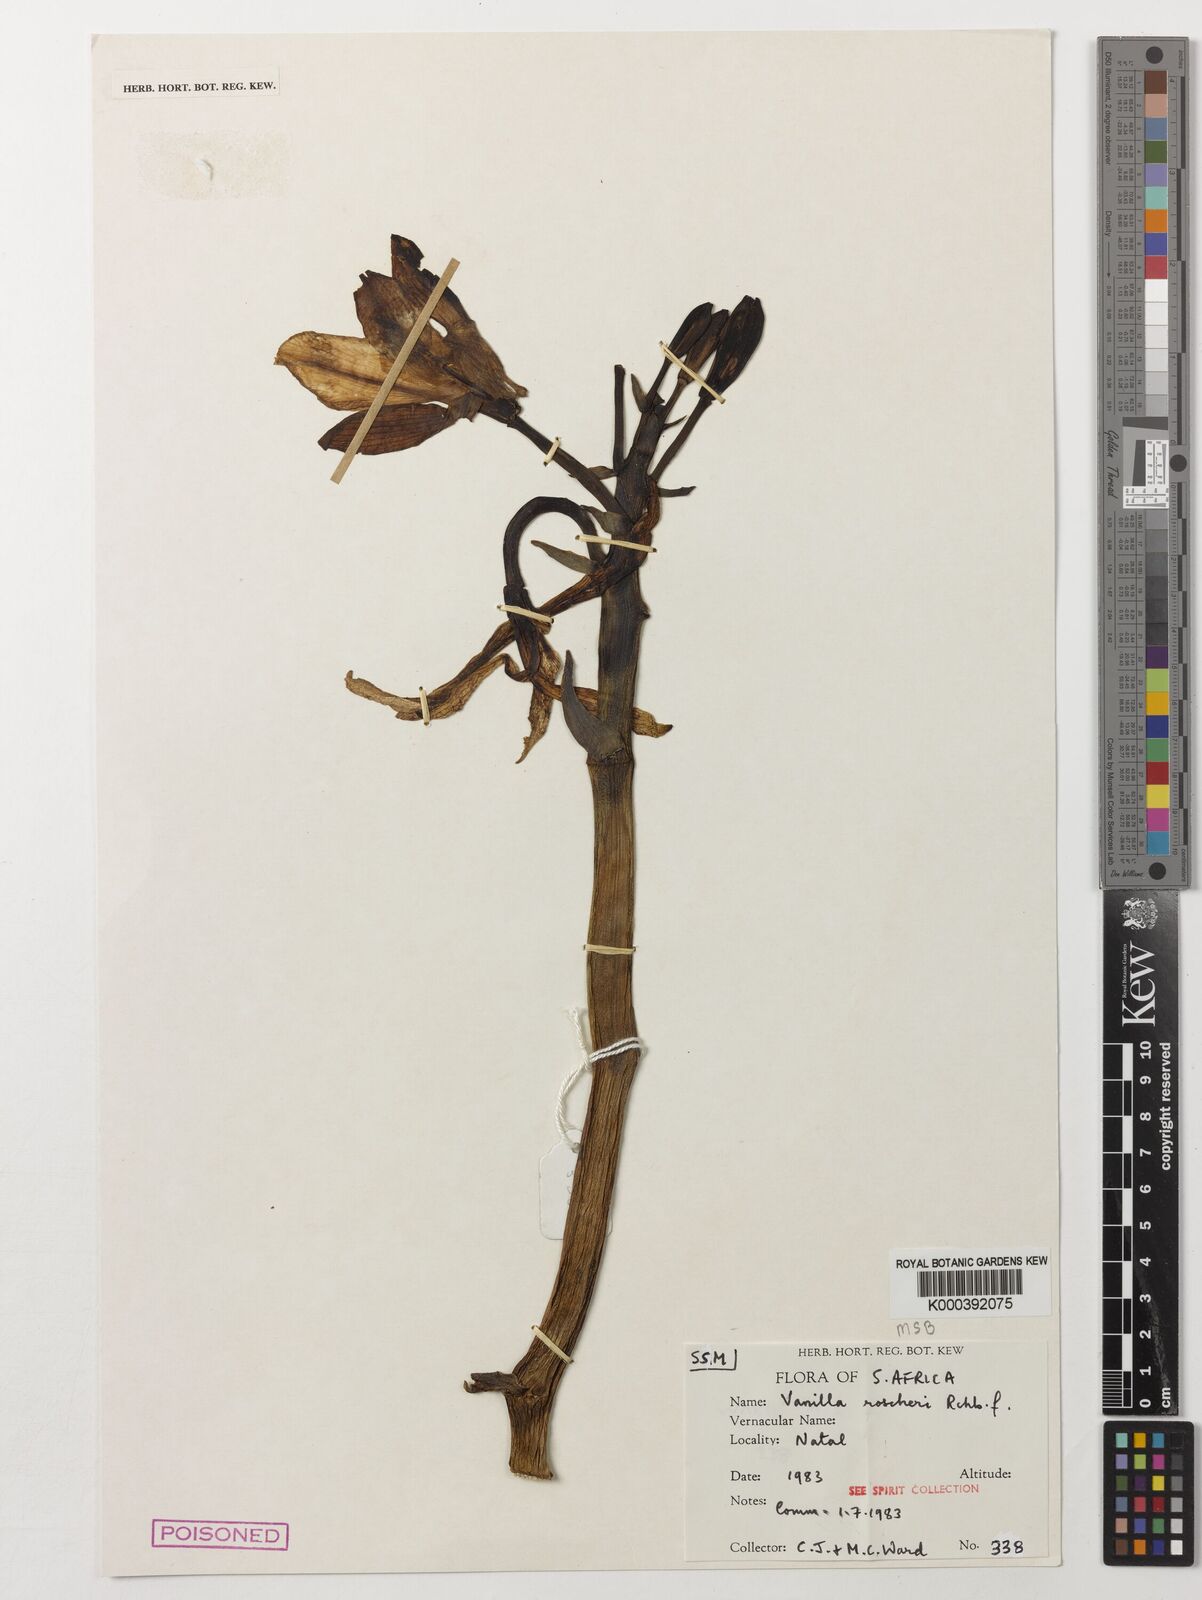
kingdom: Plantae
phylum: Tracheophyta
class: Liliopsida
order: Asparagales
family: Orchidaceae
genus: Vanilla
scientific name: Vanilla roscheri
